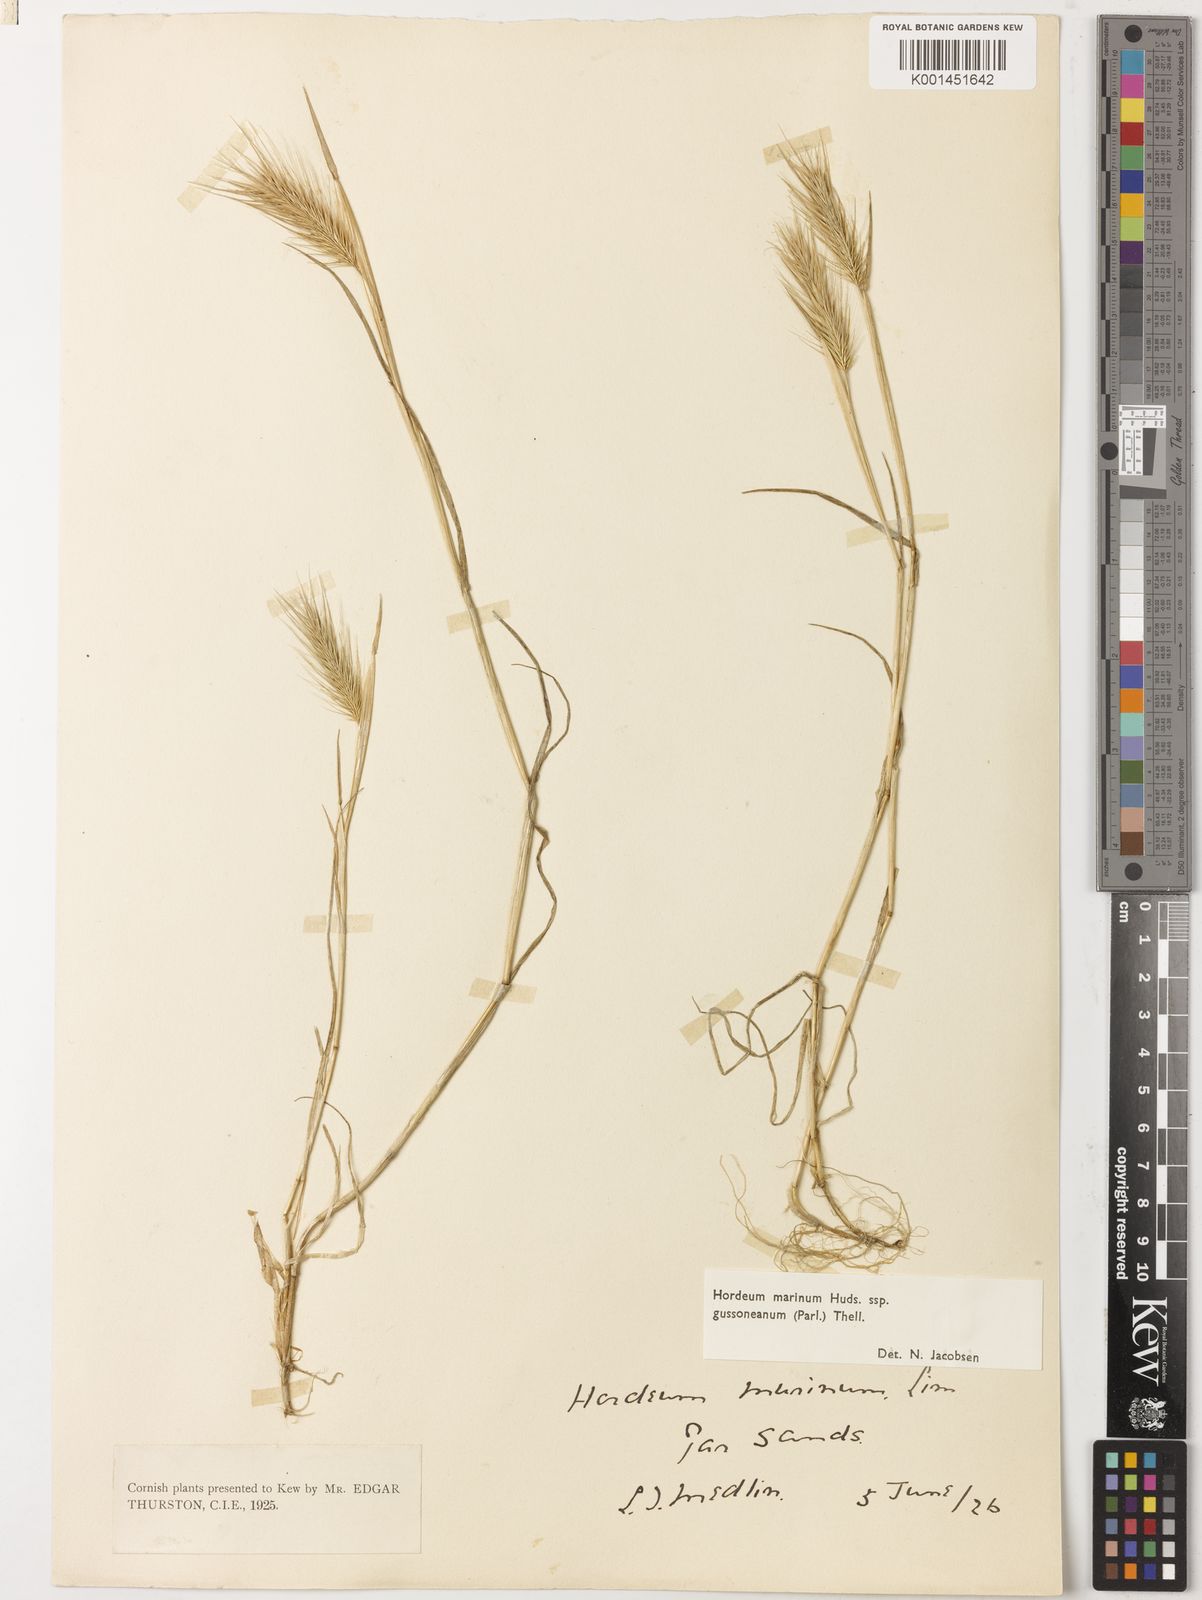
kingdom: Plantae
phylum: Tracheophyta
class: Liliopsida
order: Poales
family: Poaceae
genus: Hordeum
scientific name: Hordeum marinum
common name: Sea barley
